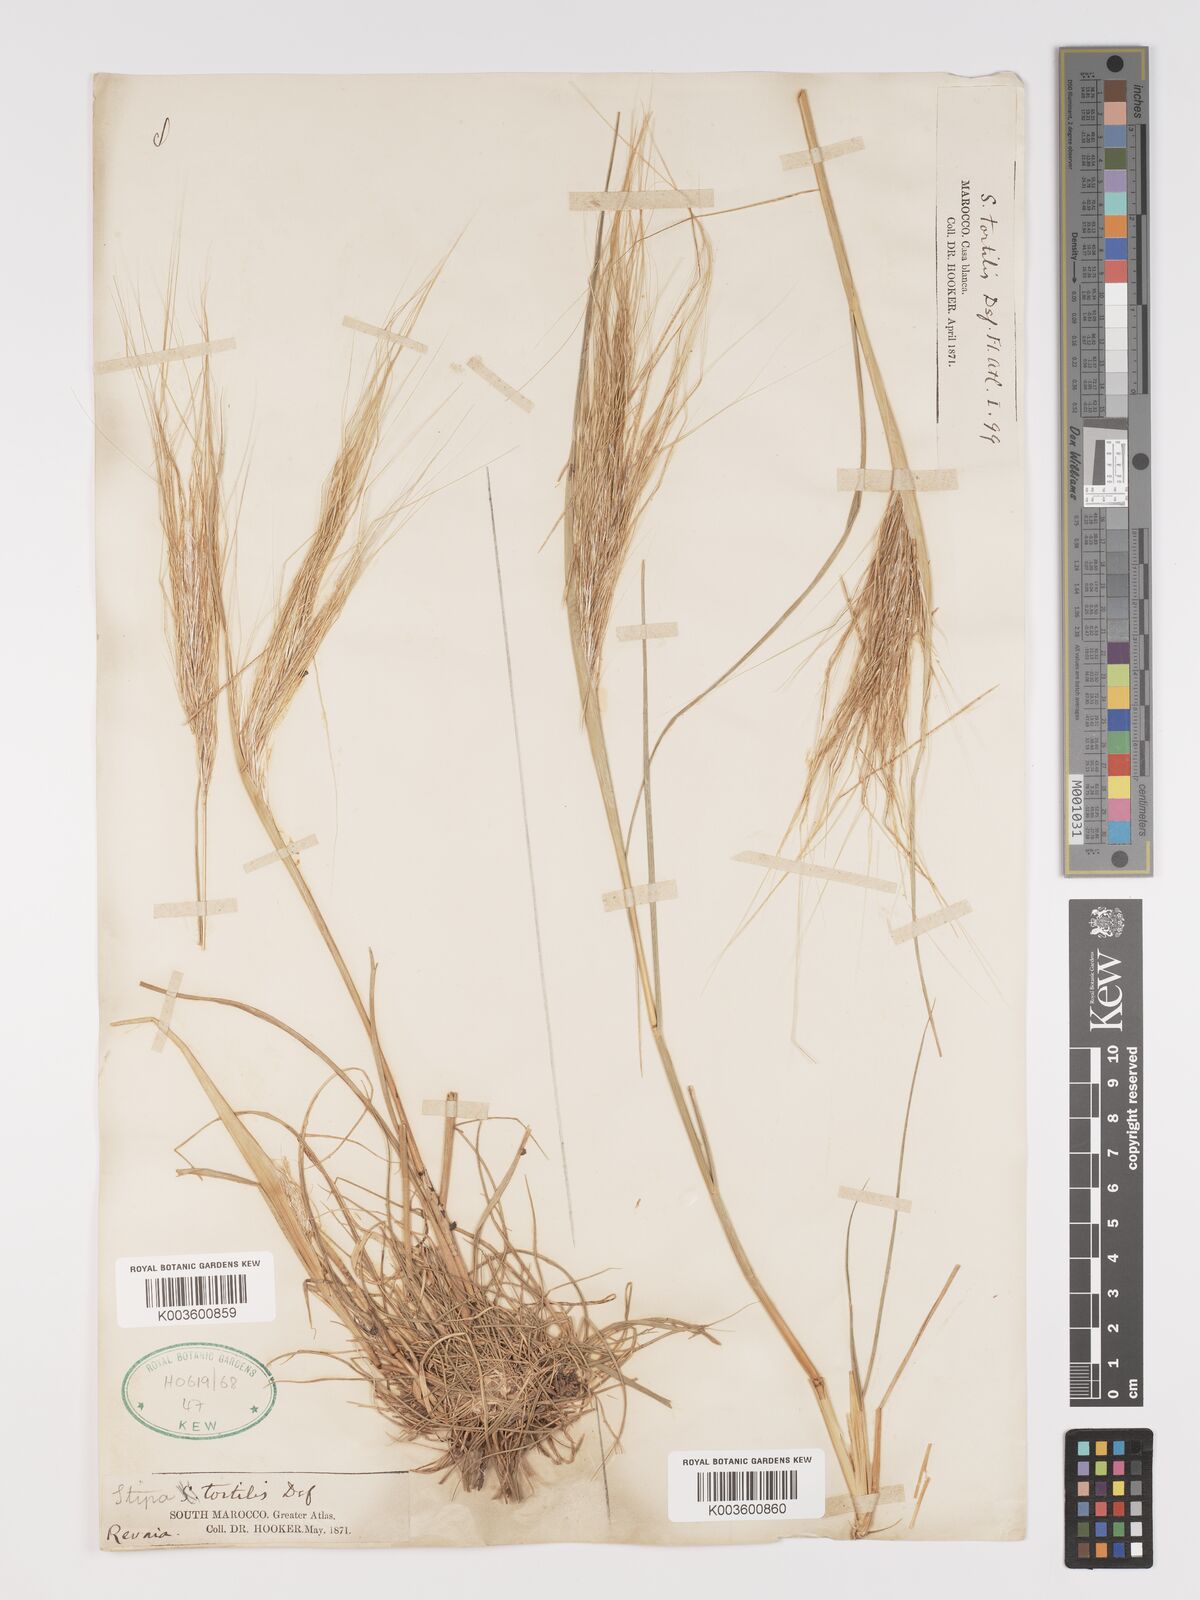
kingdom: Plantae
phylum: Tracheophyta
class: Liliopsida
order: Poales
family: Poaceae
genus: Stipellula
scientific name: Stipellula capensis
